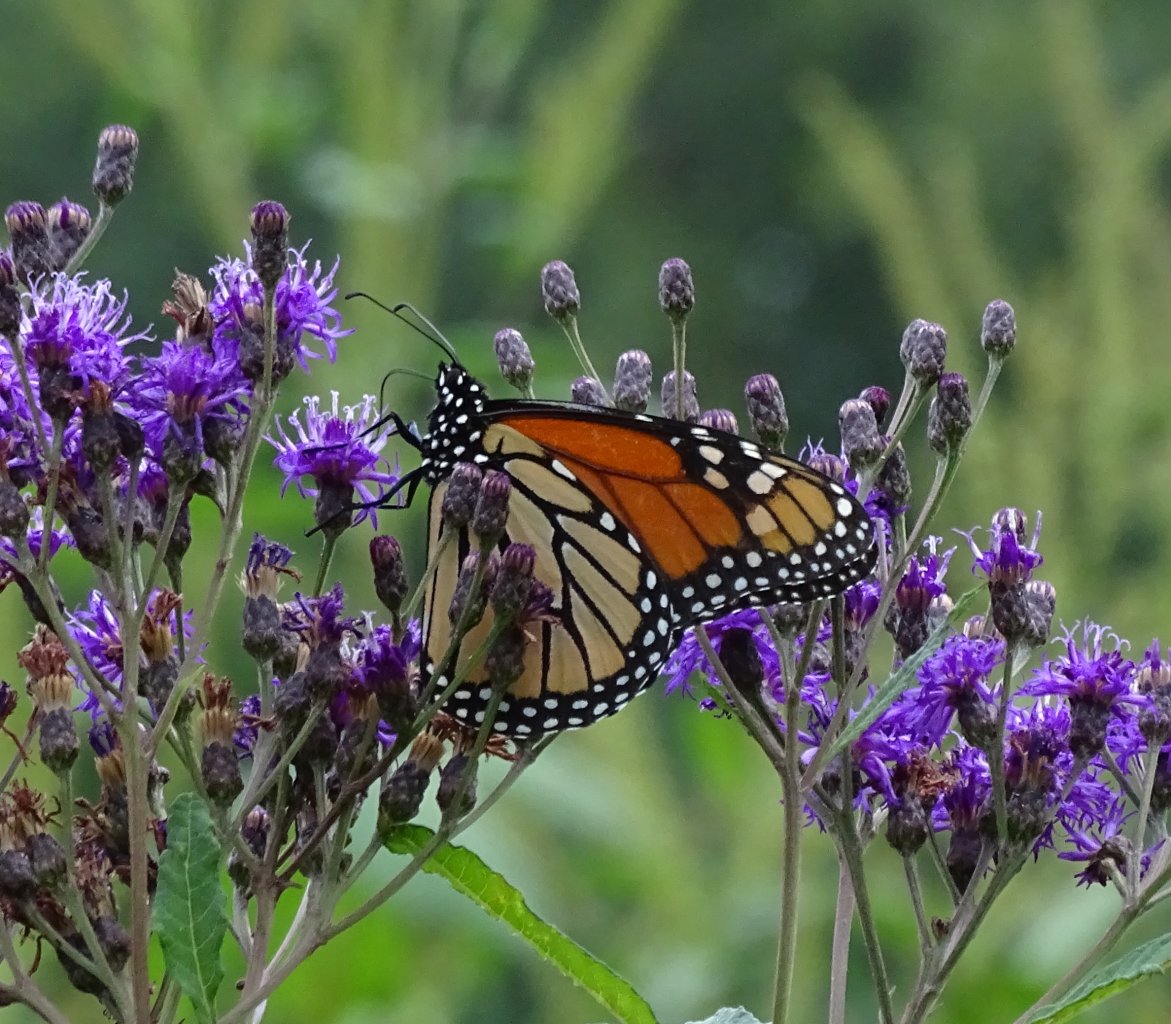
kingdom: Animalia
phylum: Arthropoda
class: Insecta
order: Lepidoptera
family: Nymphalidae
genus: Danaus
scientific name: Danaus plexippus
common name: Monarch
